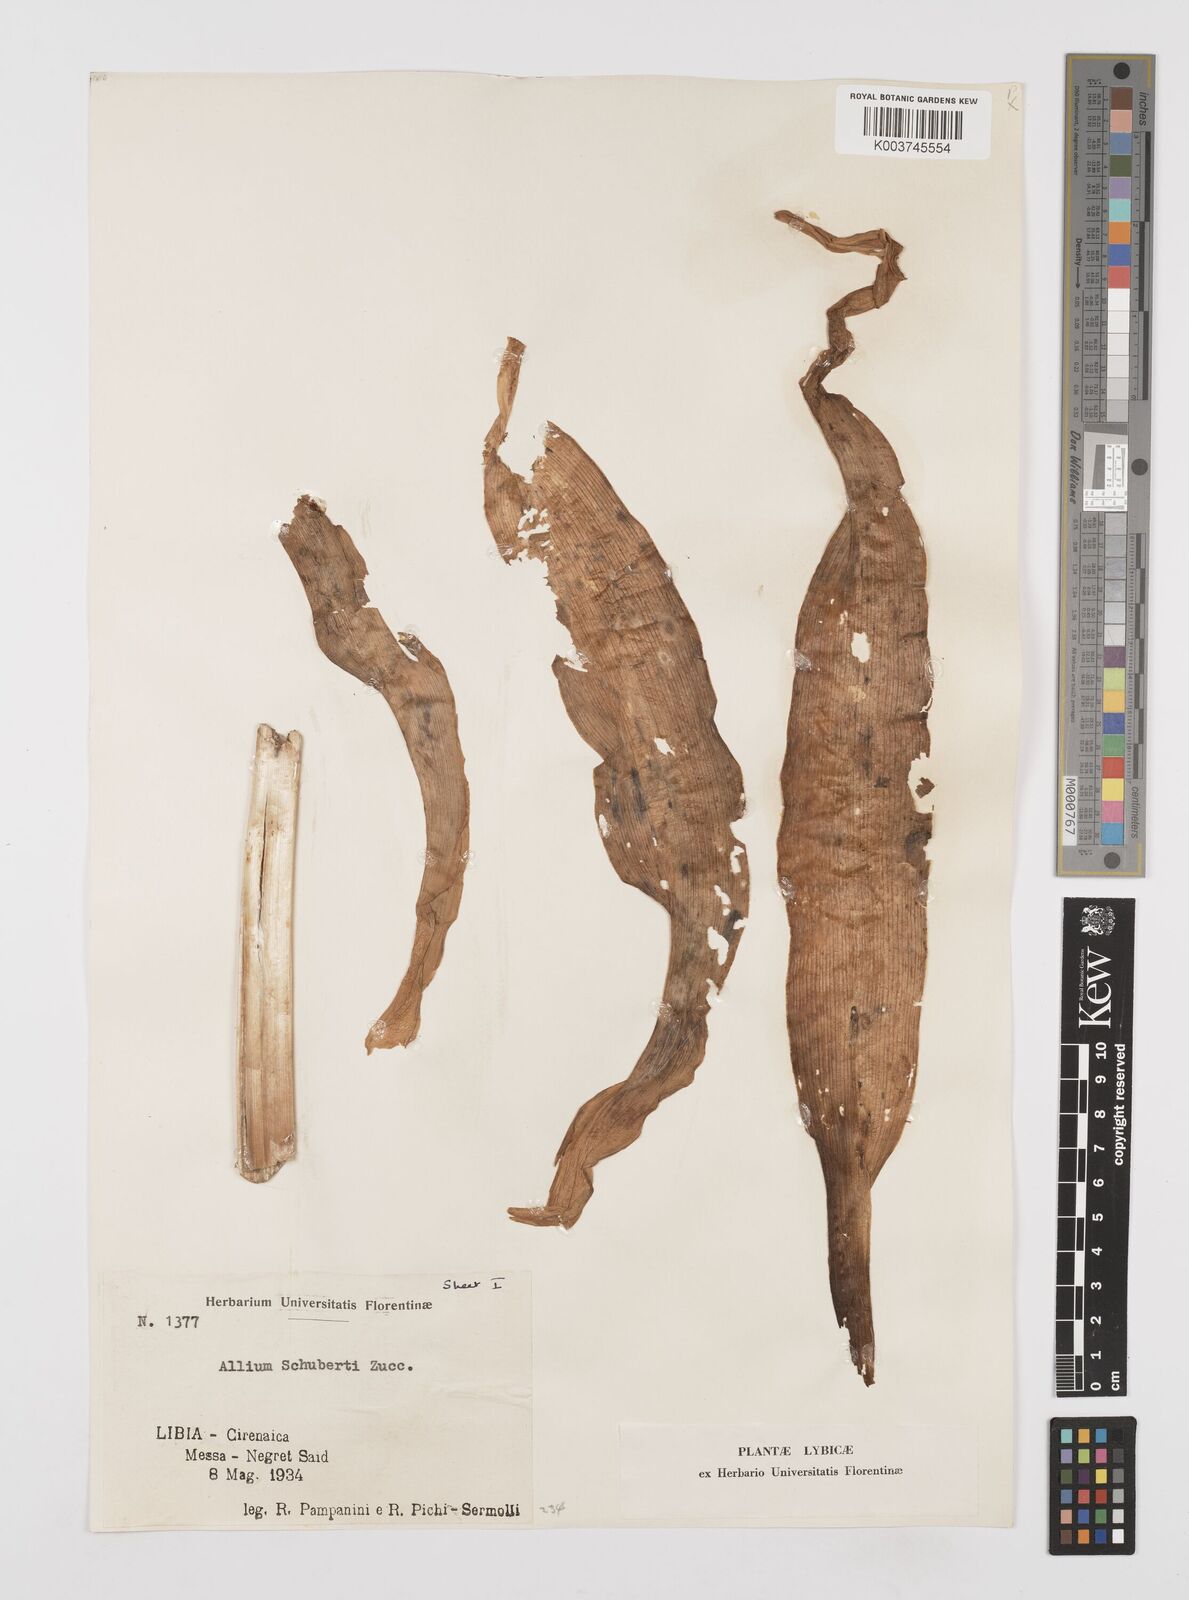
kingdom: Plantae
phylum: Tracheophyta
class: Liliopsida
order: Asparagales
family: Amaryllidaceae
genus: Allium
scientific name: Allium schubertii
